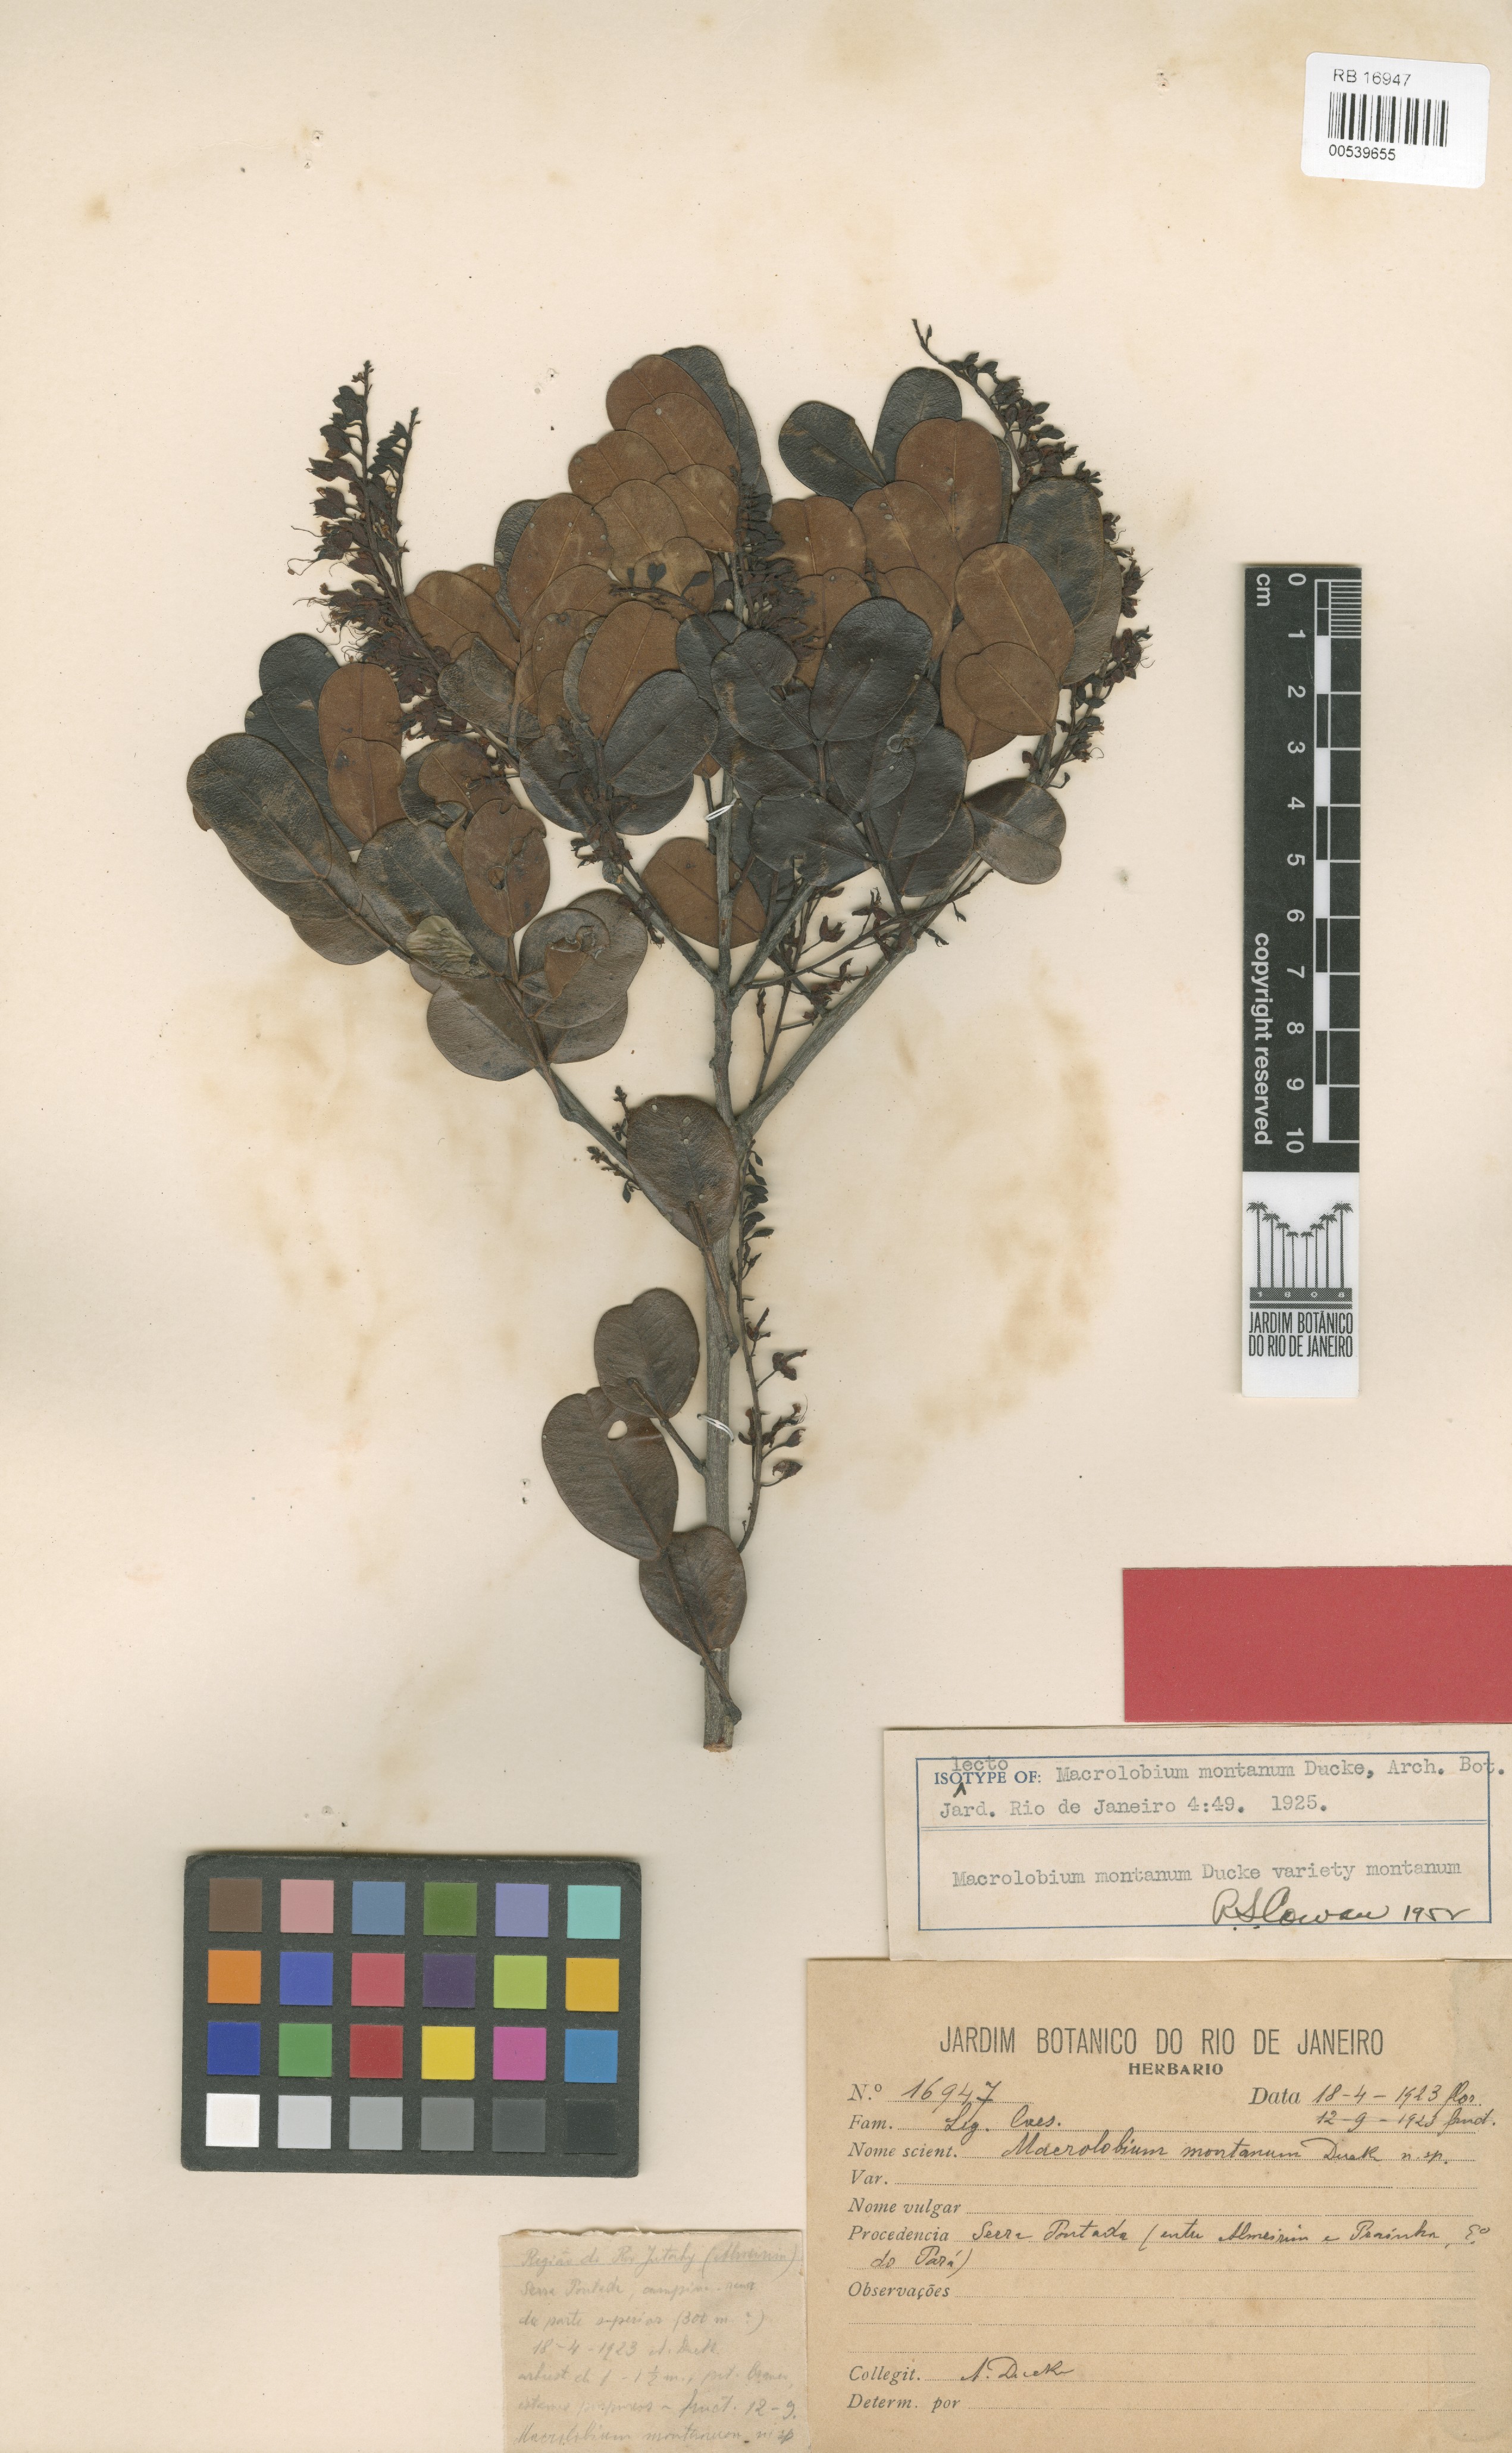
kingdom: Plantae
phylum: Tracheophyta
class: Magnoliopsida
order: Fabales
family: Fabaceae
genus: Macrolobium
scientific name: Macrolobium montanum
